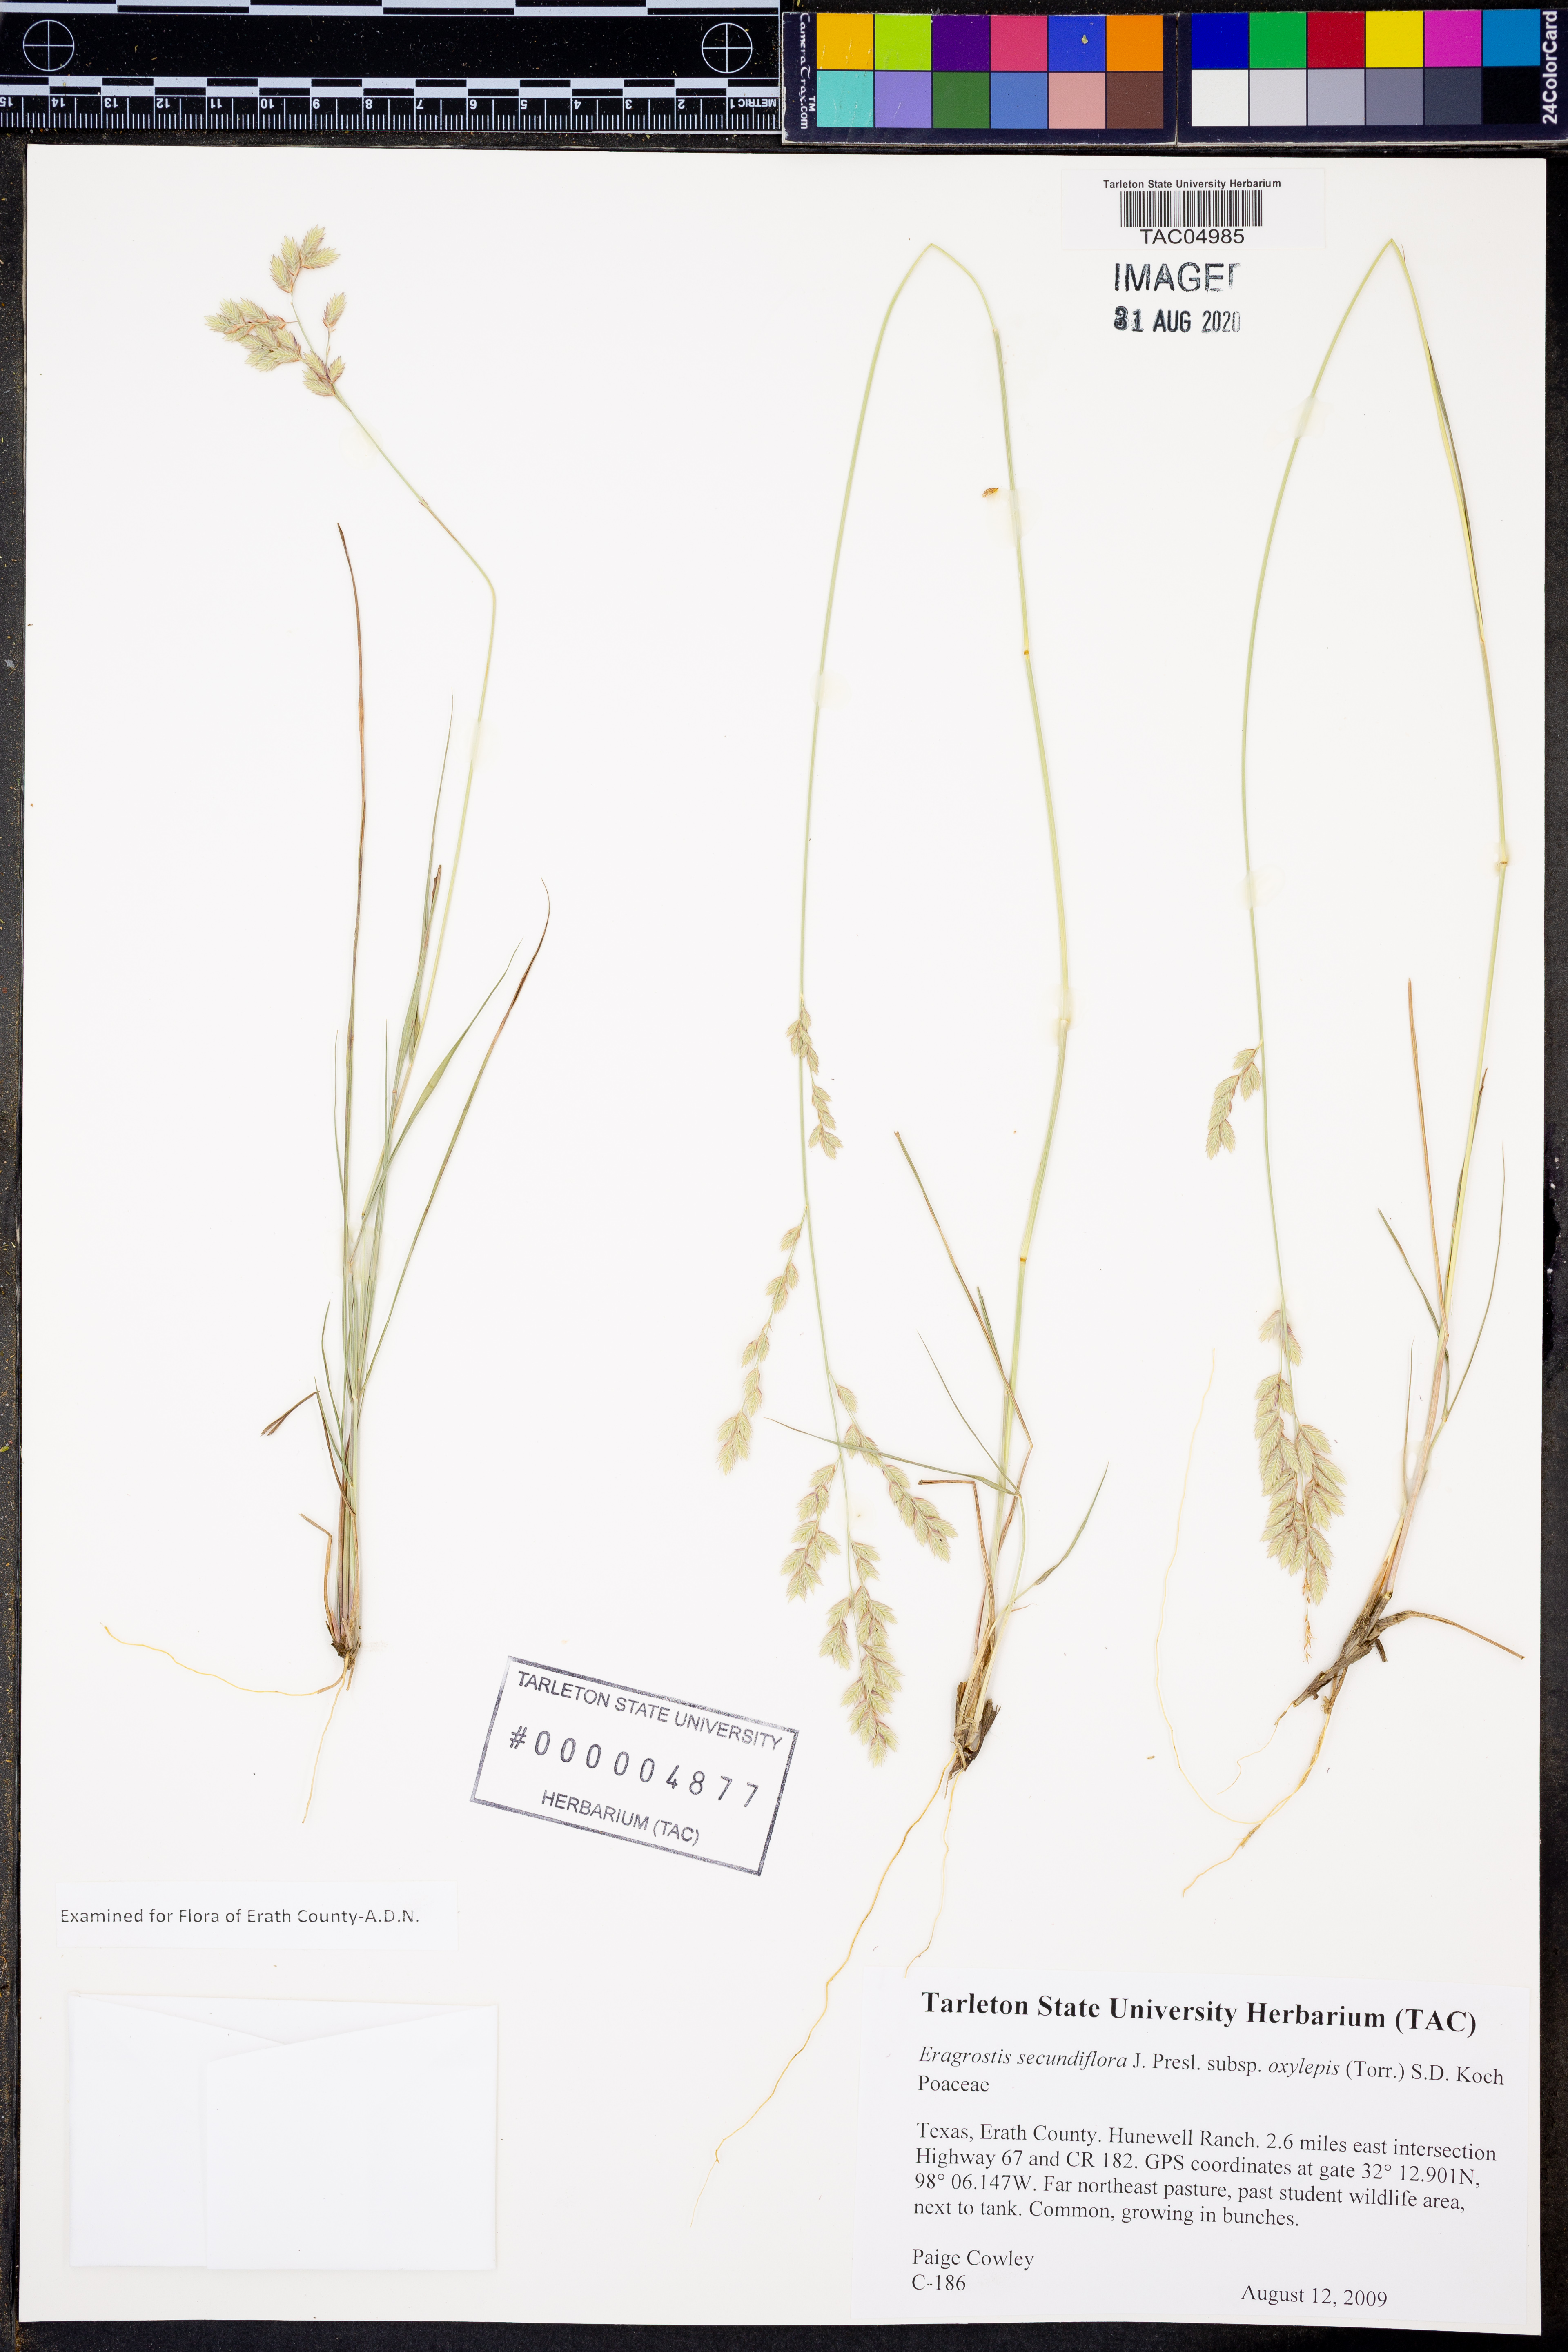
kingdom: Plantae
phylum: Tracheophyta
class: Liliopsida
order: Poales
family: Poaceae
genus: Eragrostis
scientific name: Eragrostis secundiflora
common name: Red love grass
